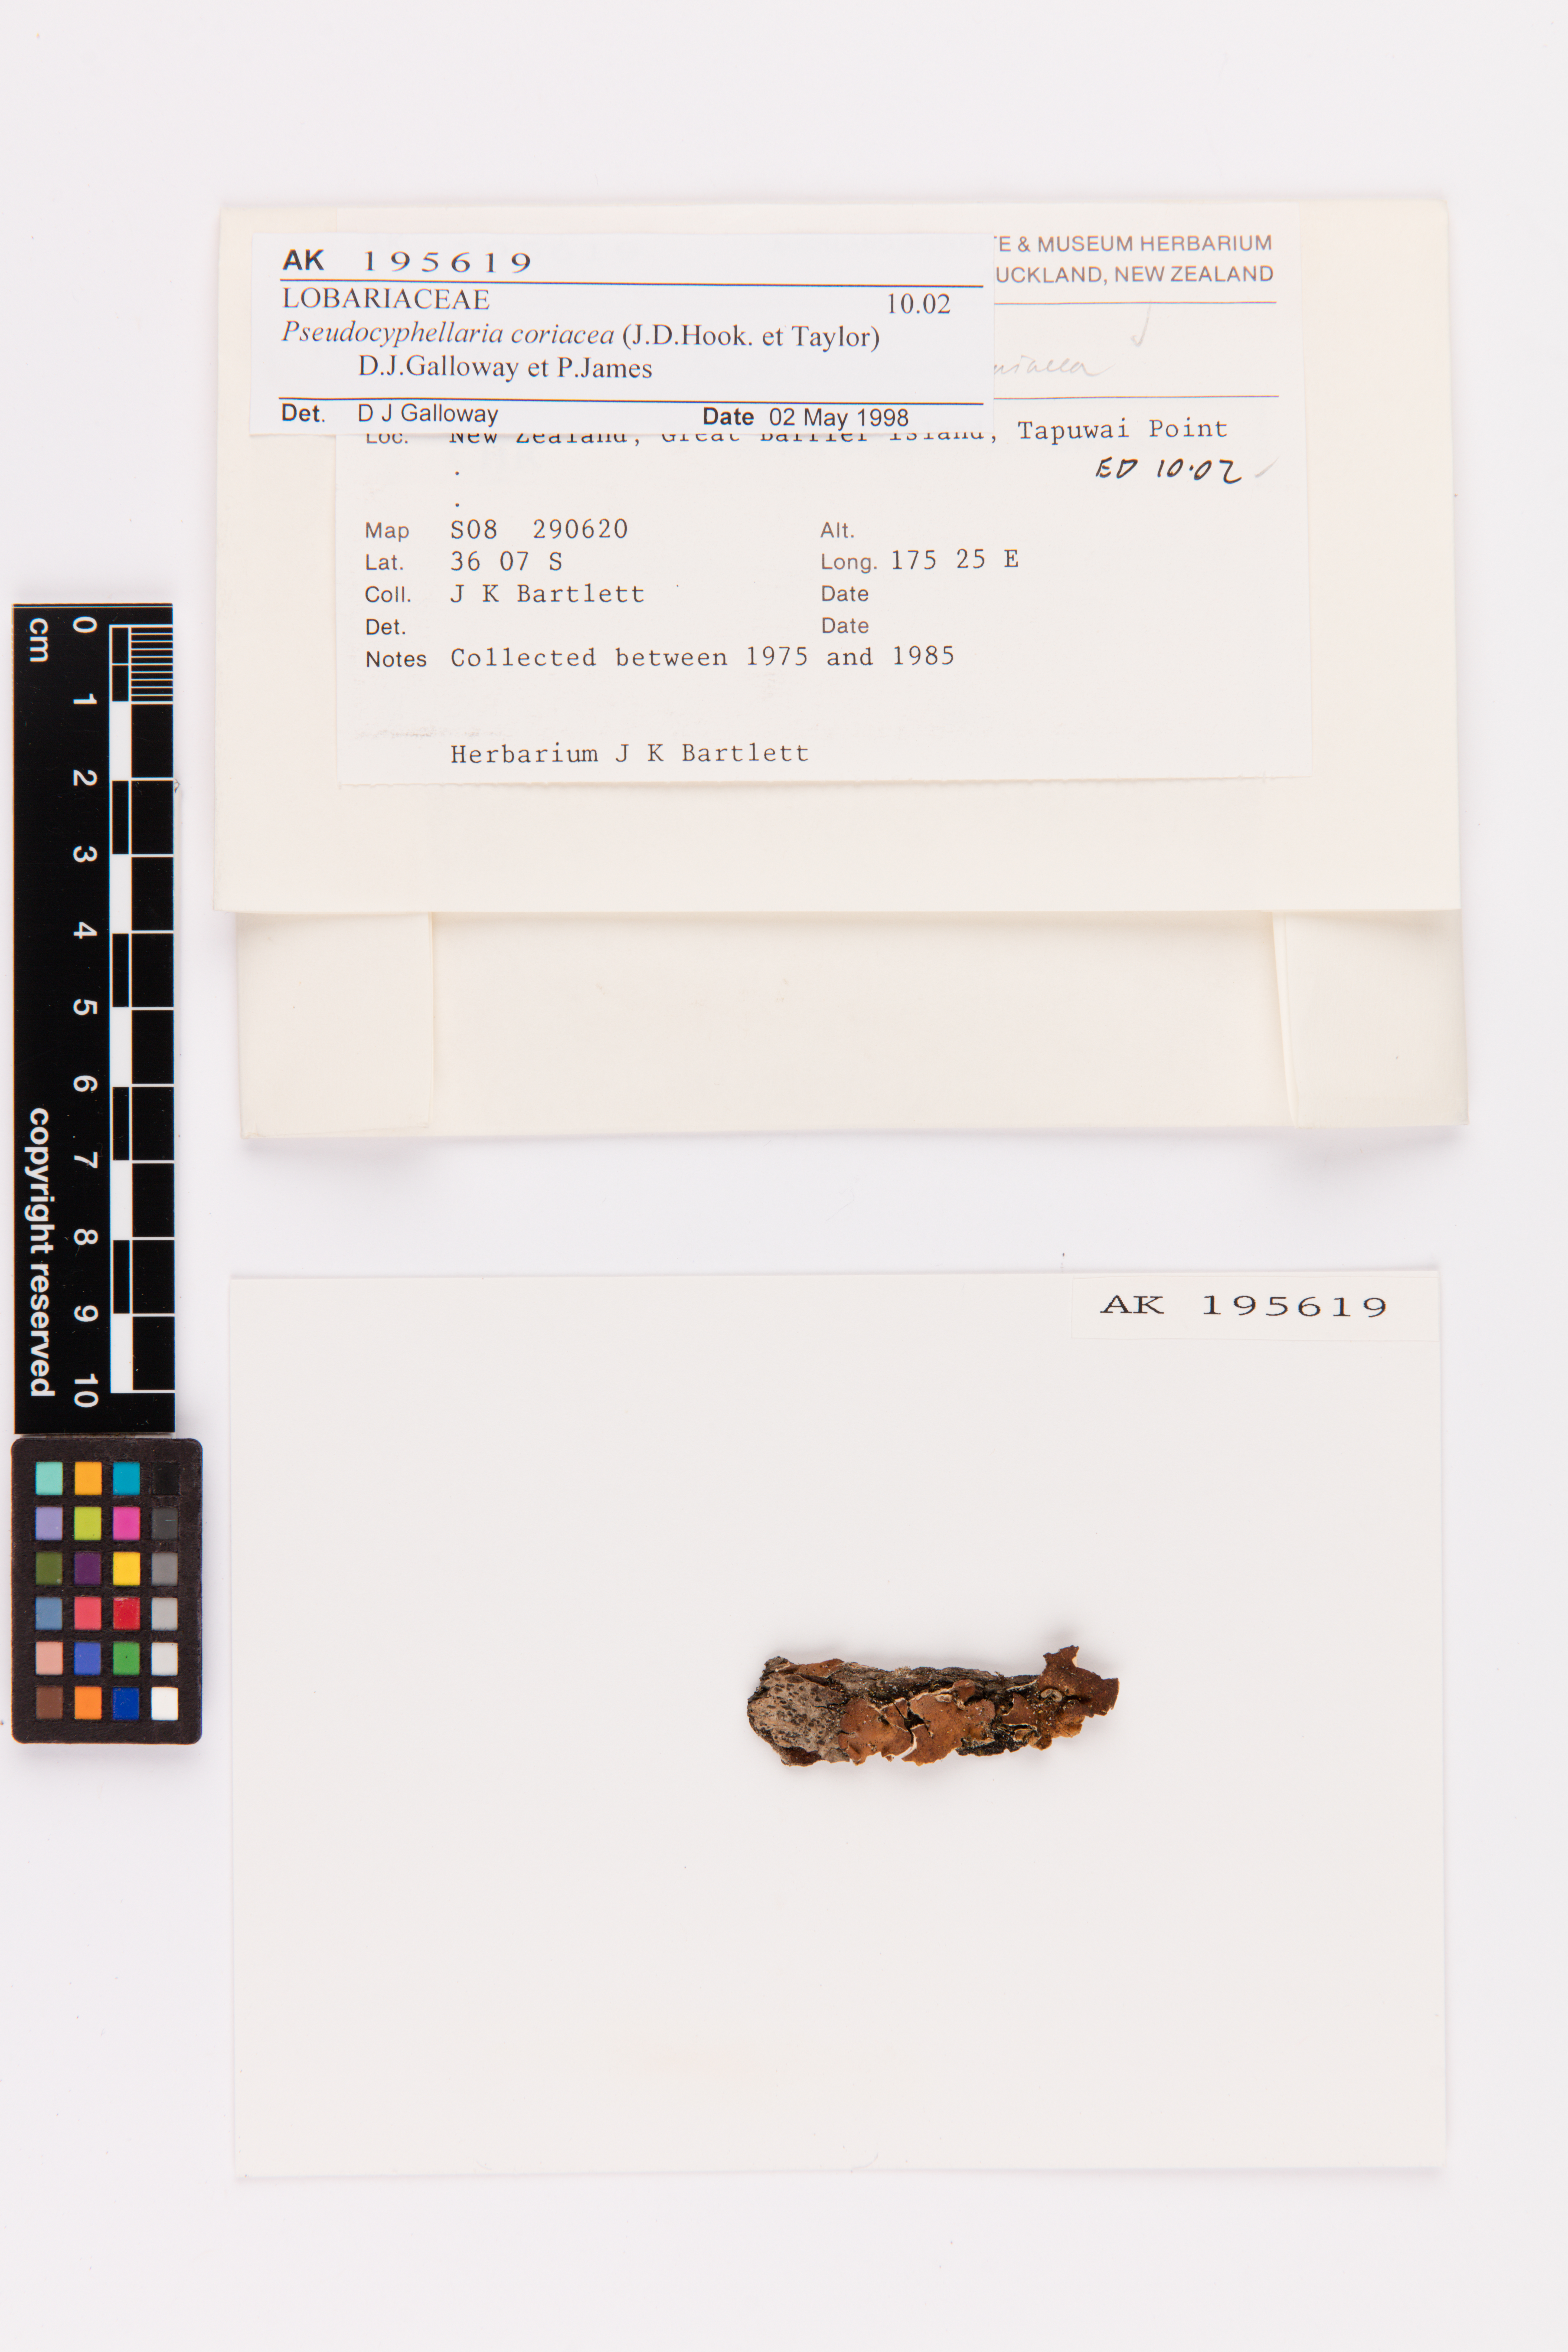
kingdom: Fungi
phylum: Ascomycota
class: Lecanoromycetes
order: Peltigerales
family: Lobariaceae
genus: Pseudocyphellaria
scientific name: Pseudocyphellaria coriacea
